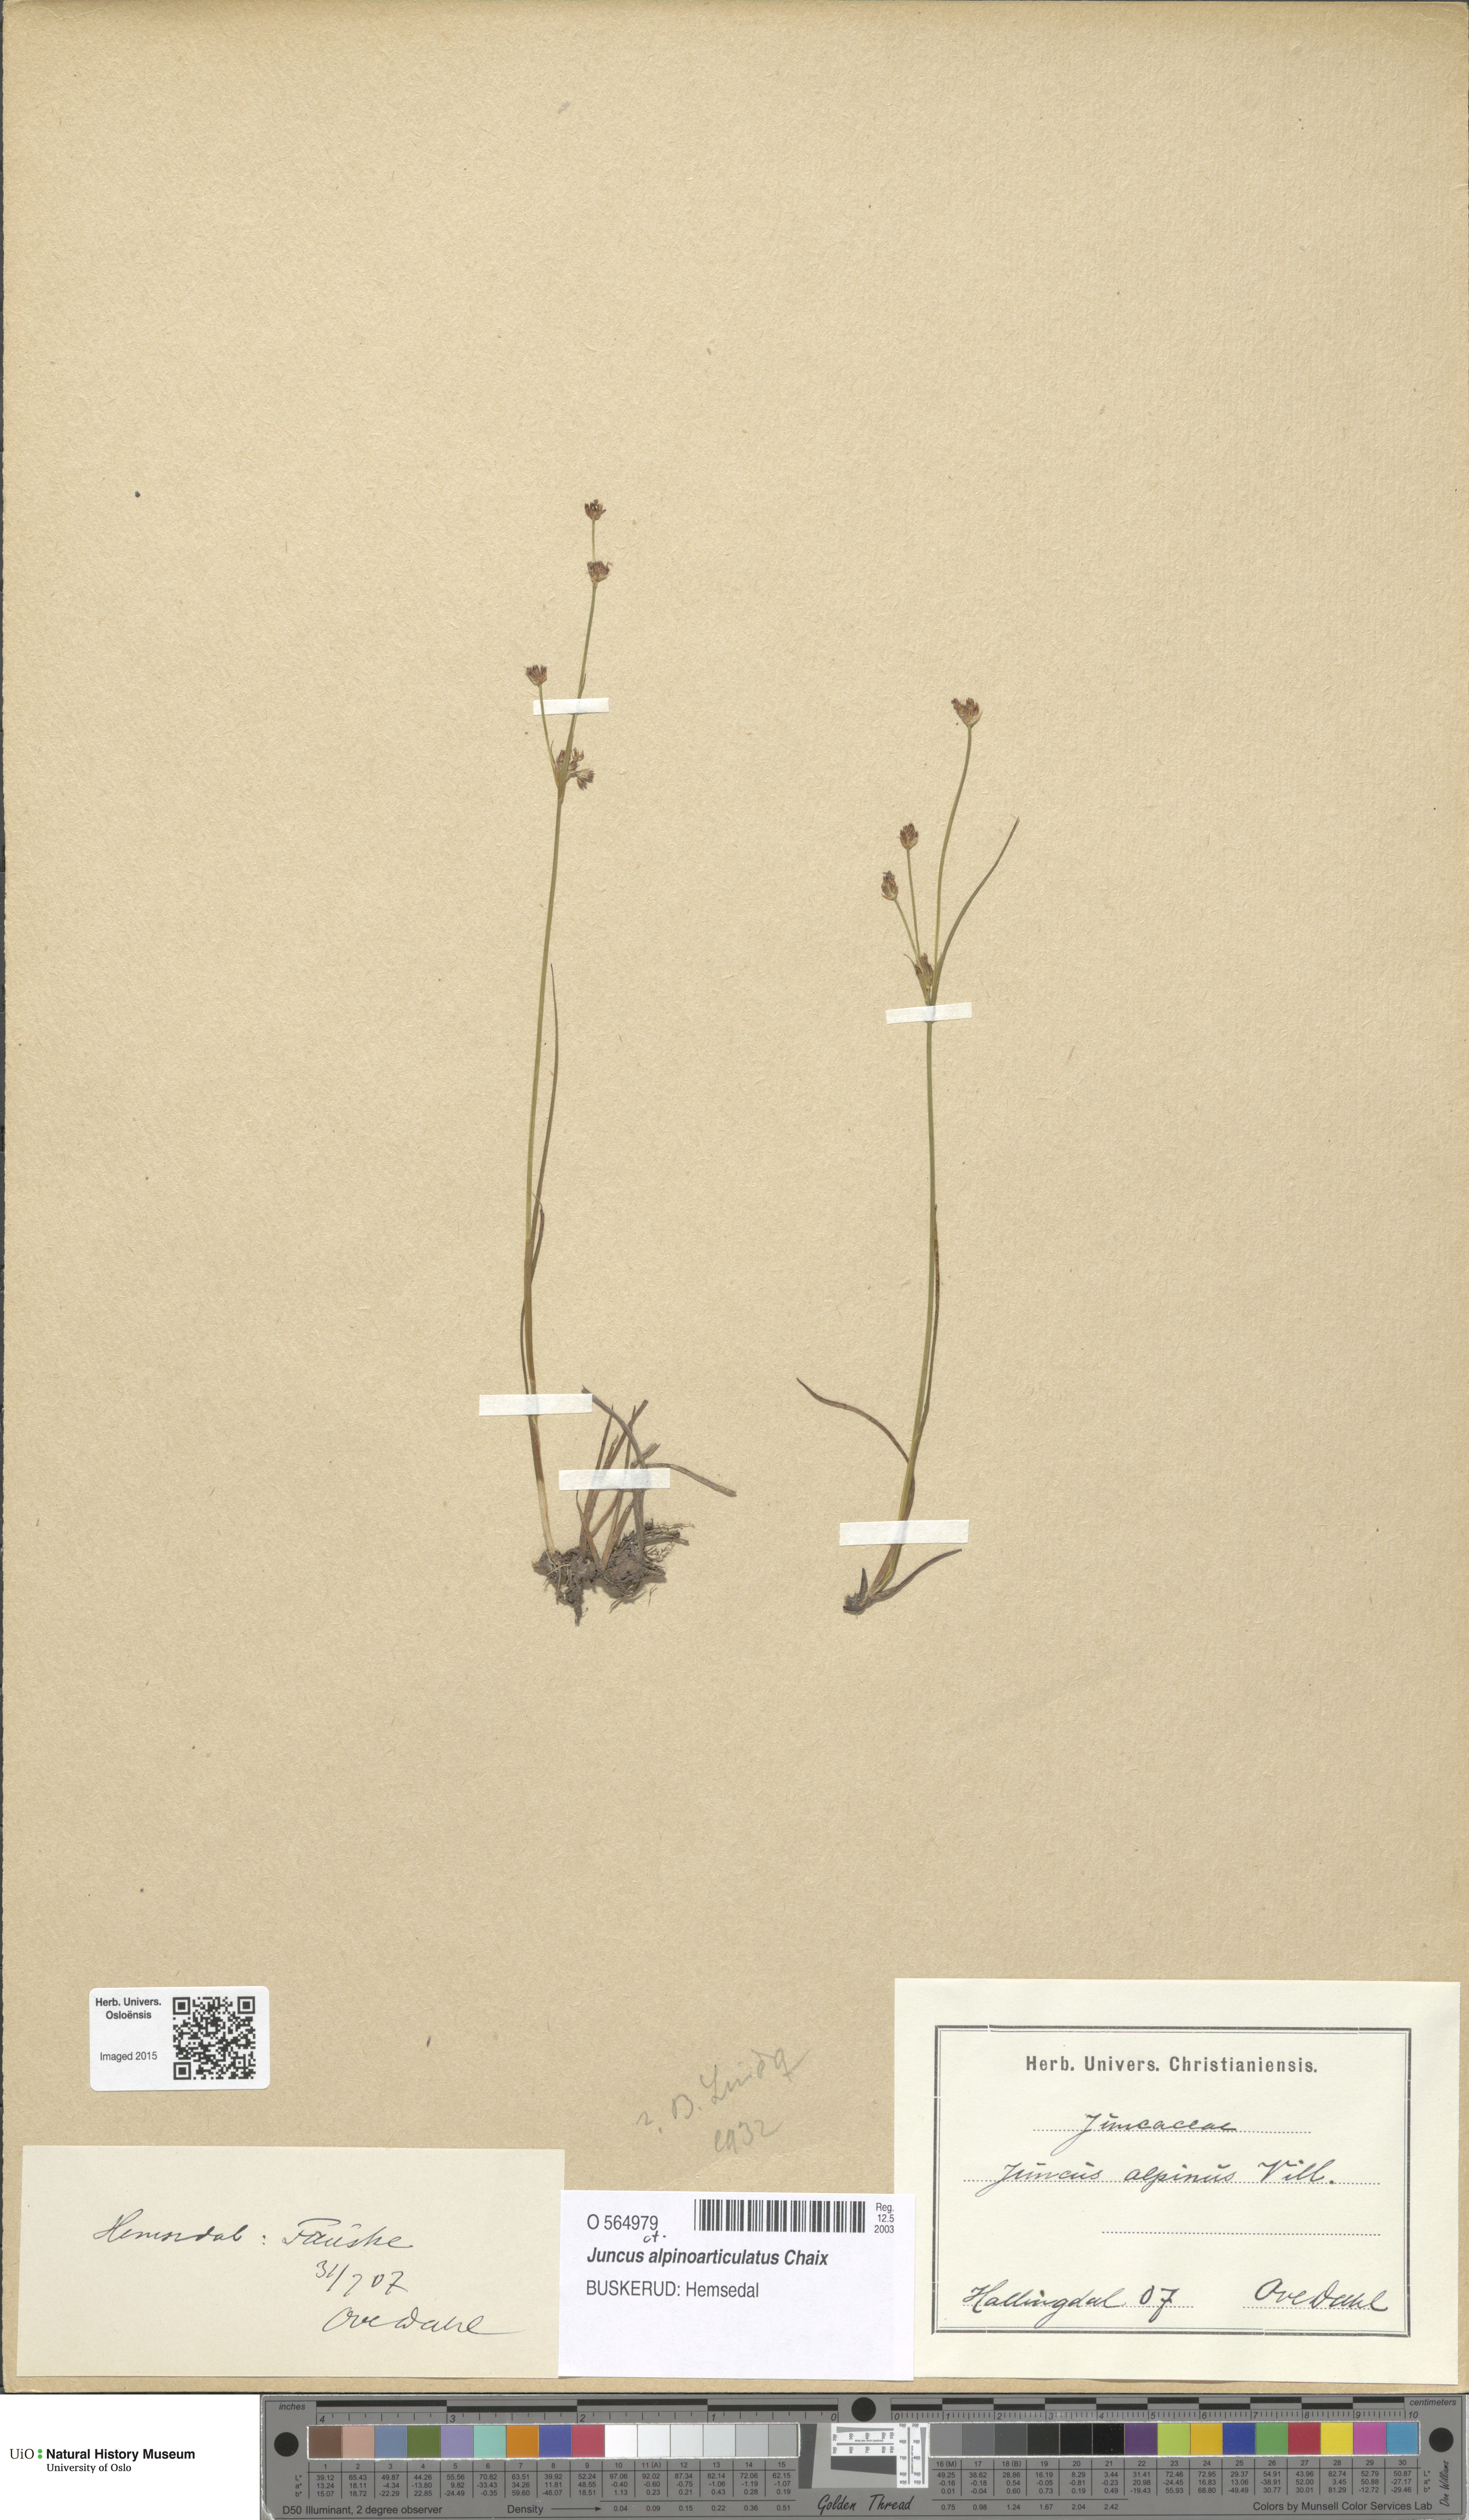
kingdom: Plantae
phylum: Tracheophyta
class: Liliopsida
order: Poales
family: Juncaceae
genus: Juncus
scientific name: Juncus alpinoarticulatus
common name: Alpine rush
